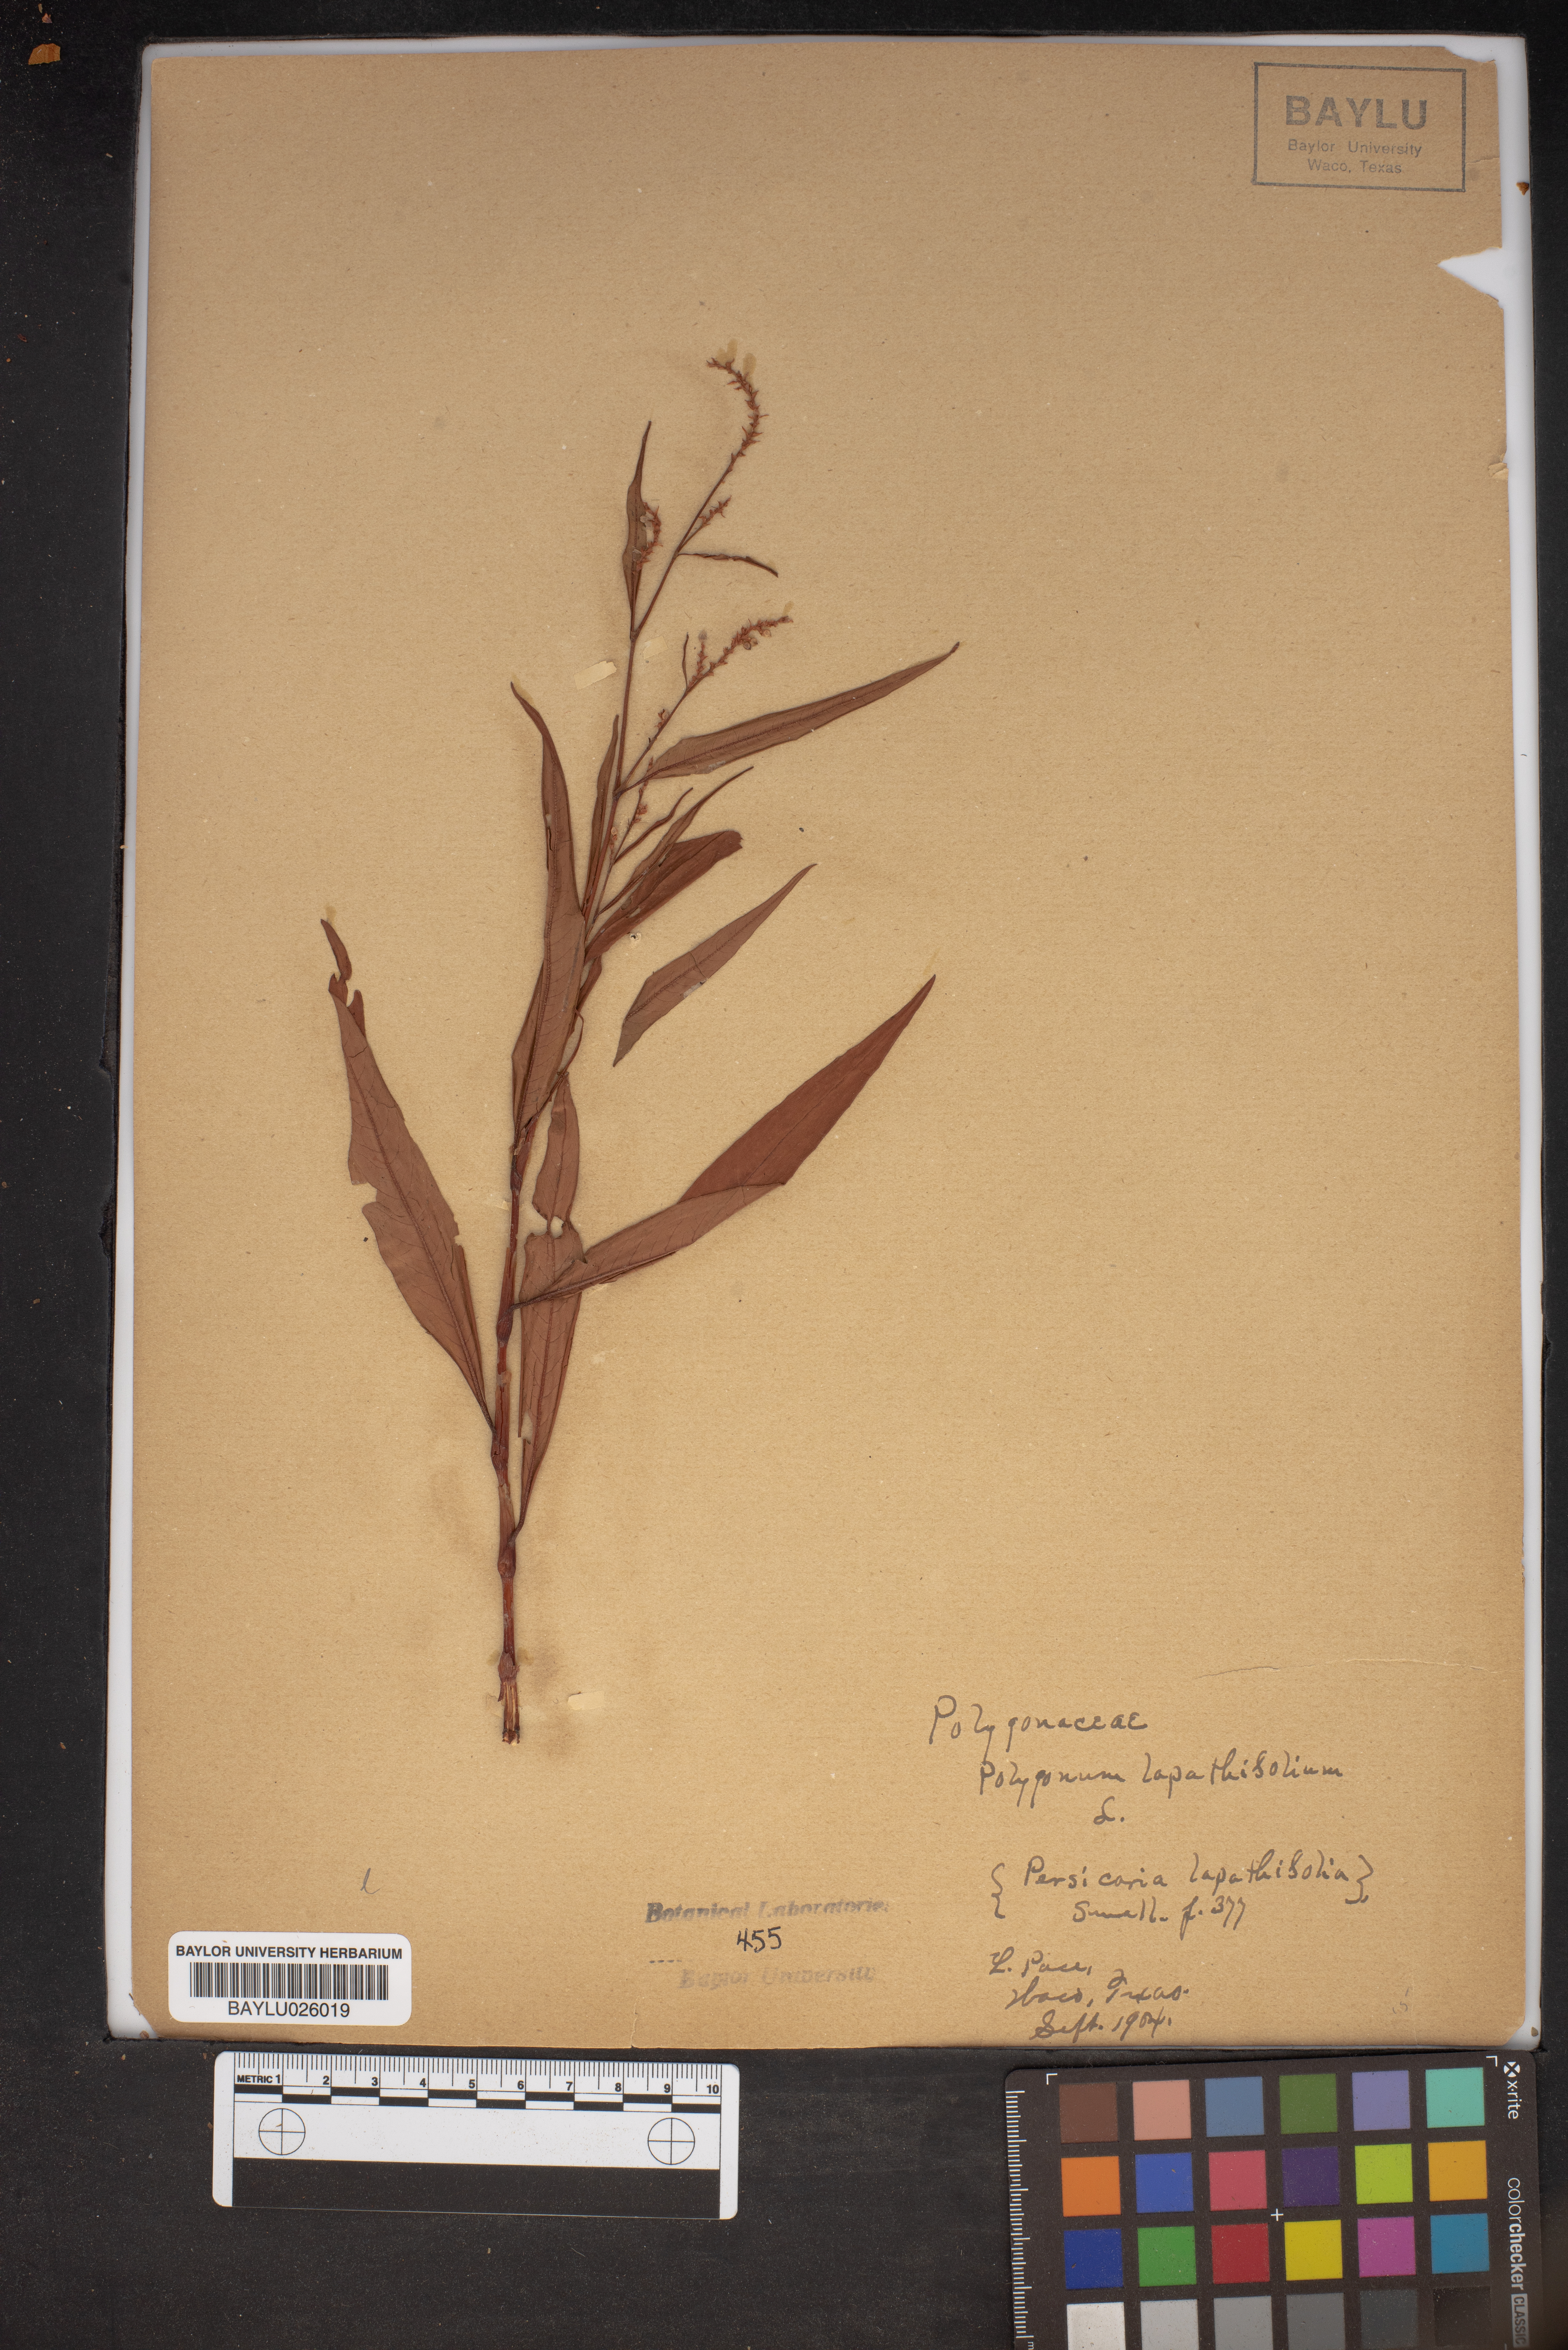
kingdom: Plantae
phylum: Tracheophyta
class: Magnoliopsida
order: Caryophyllales
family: Polygonaceae
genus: Persicaria
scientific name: Persicaria lapathifolia
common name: Curlytop knotweed
